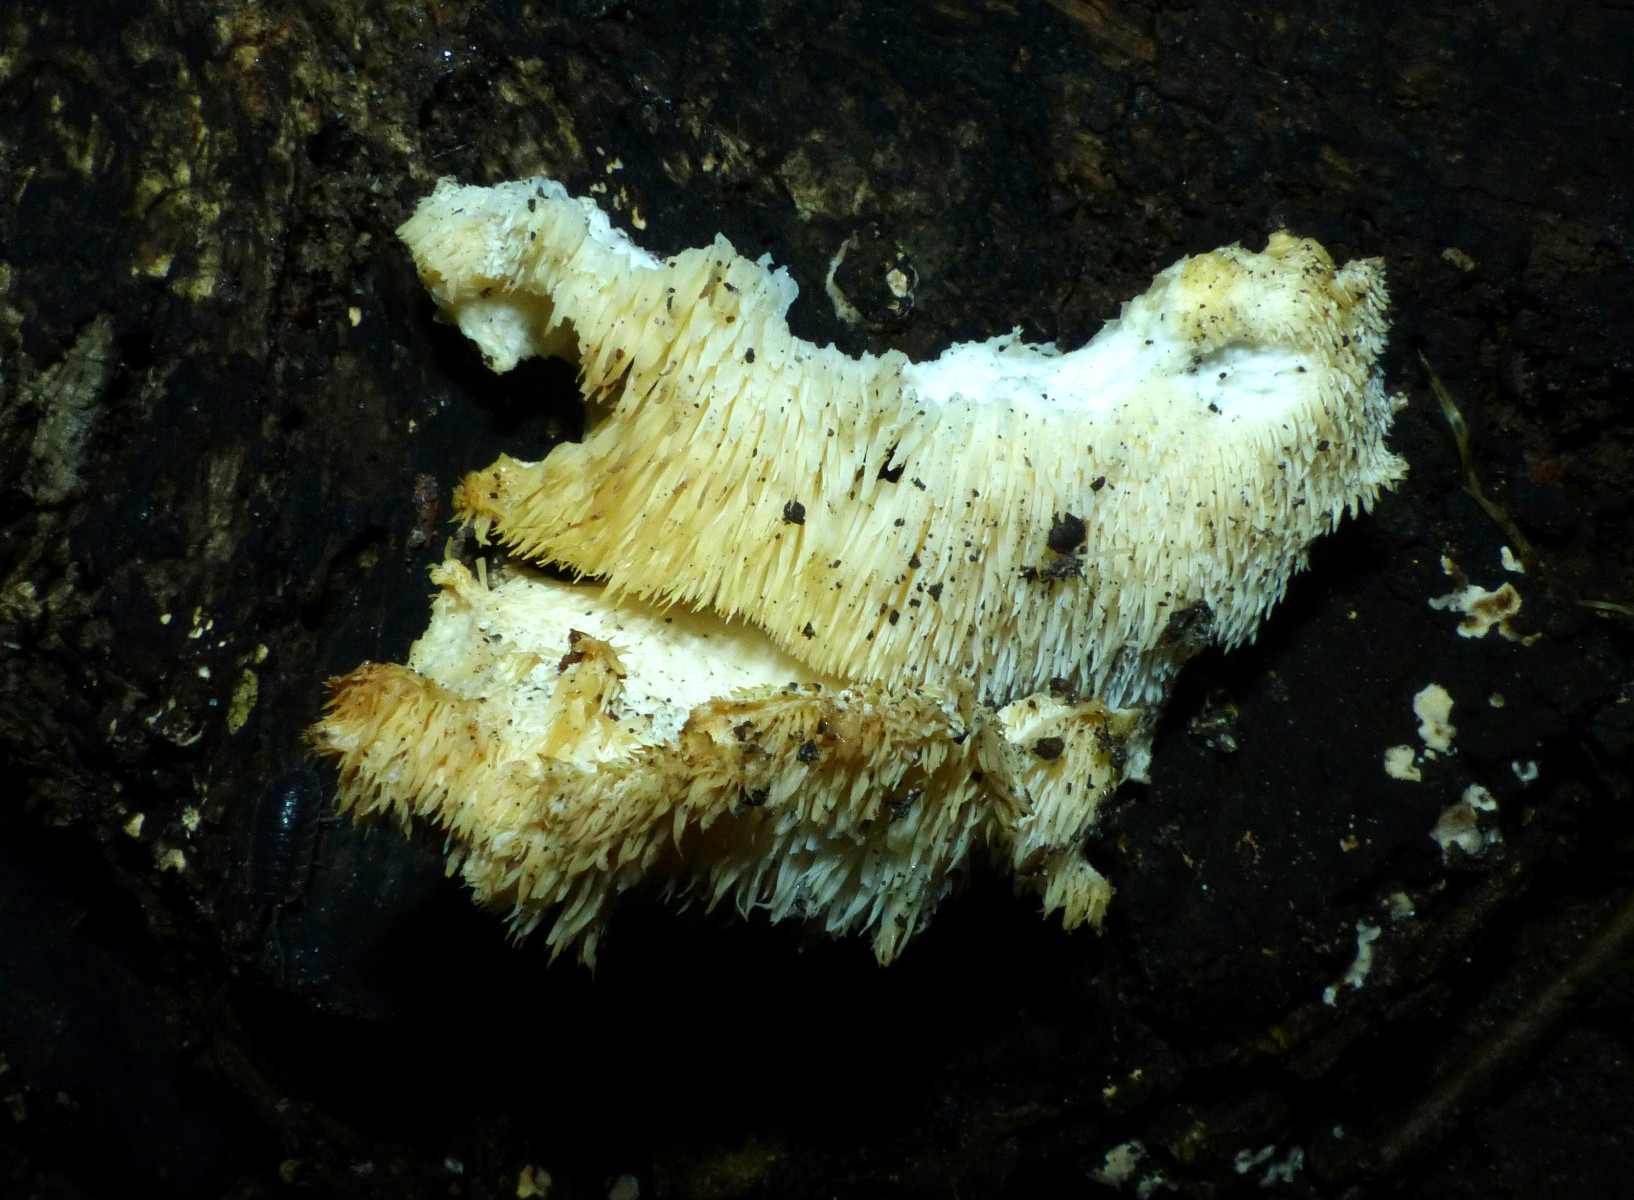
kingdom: Fungi
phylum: Basidiomycota
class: Agaricomycetes
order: Russulales
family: Hericiaceae
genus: Hericium
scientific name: Hericium cirrhatum
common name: børstepigsvamp
